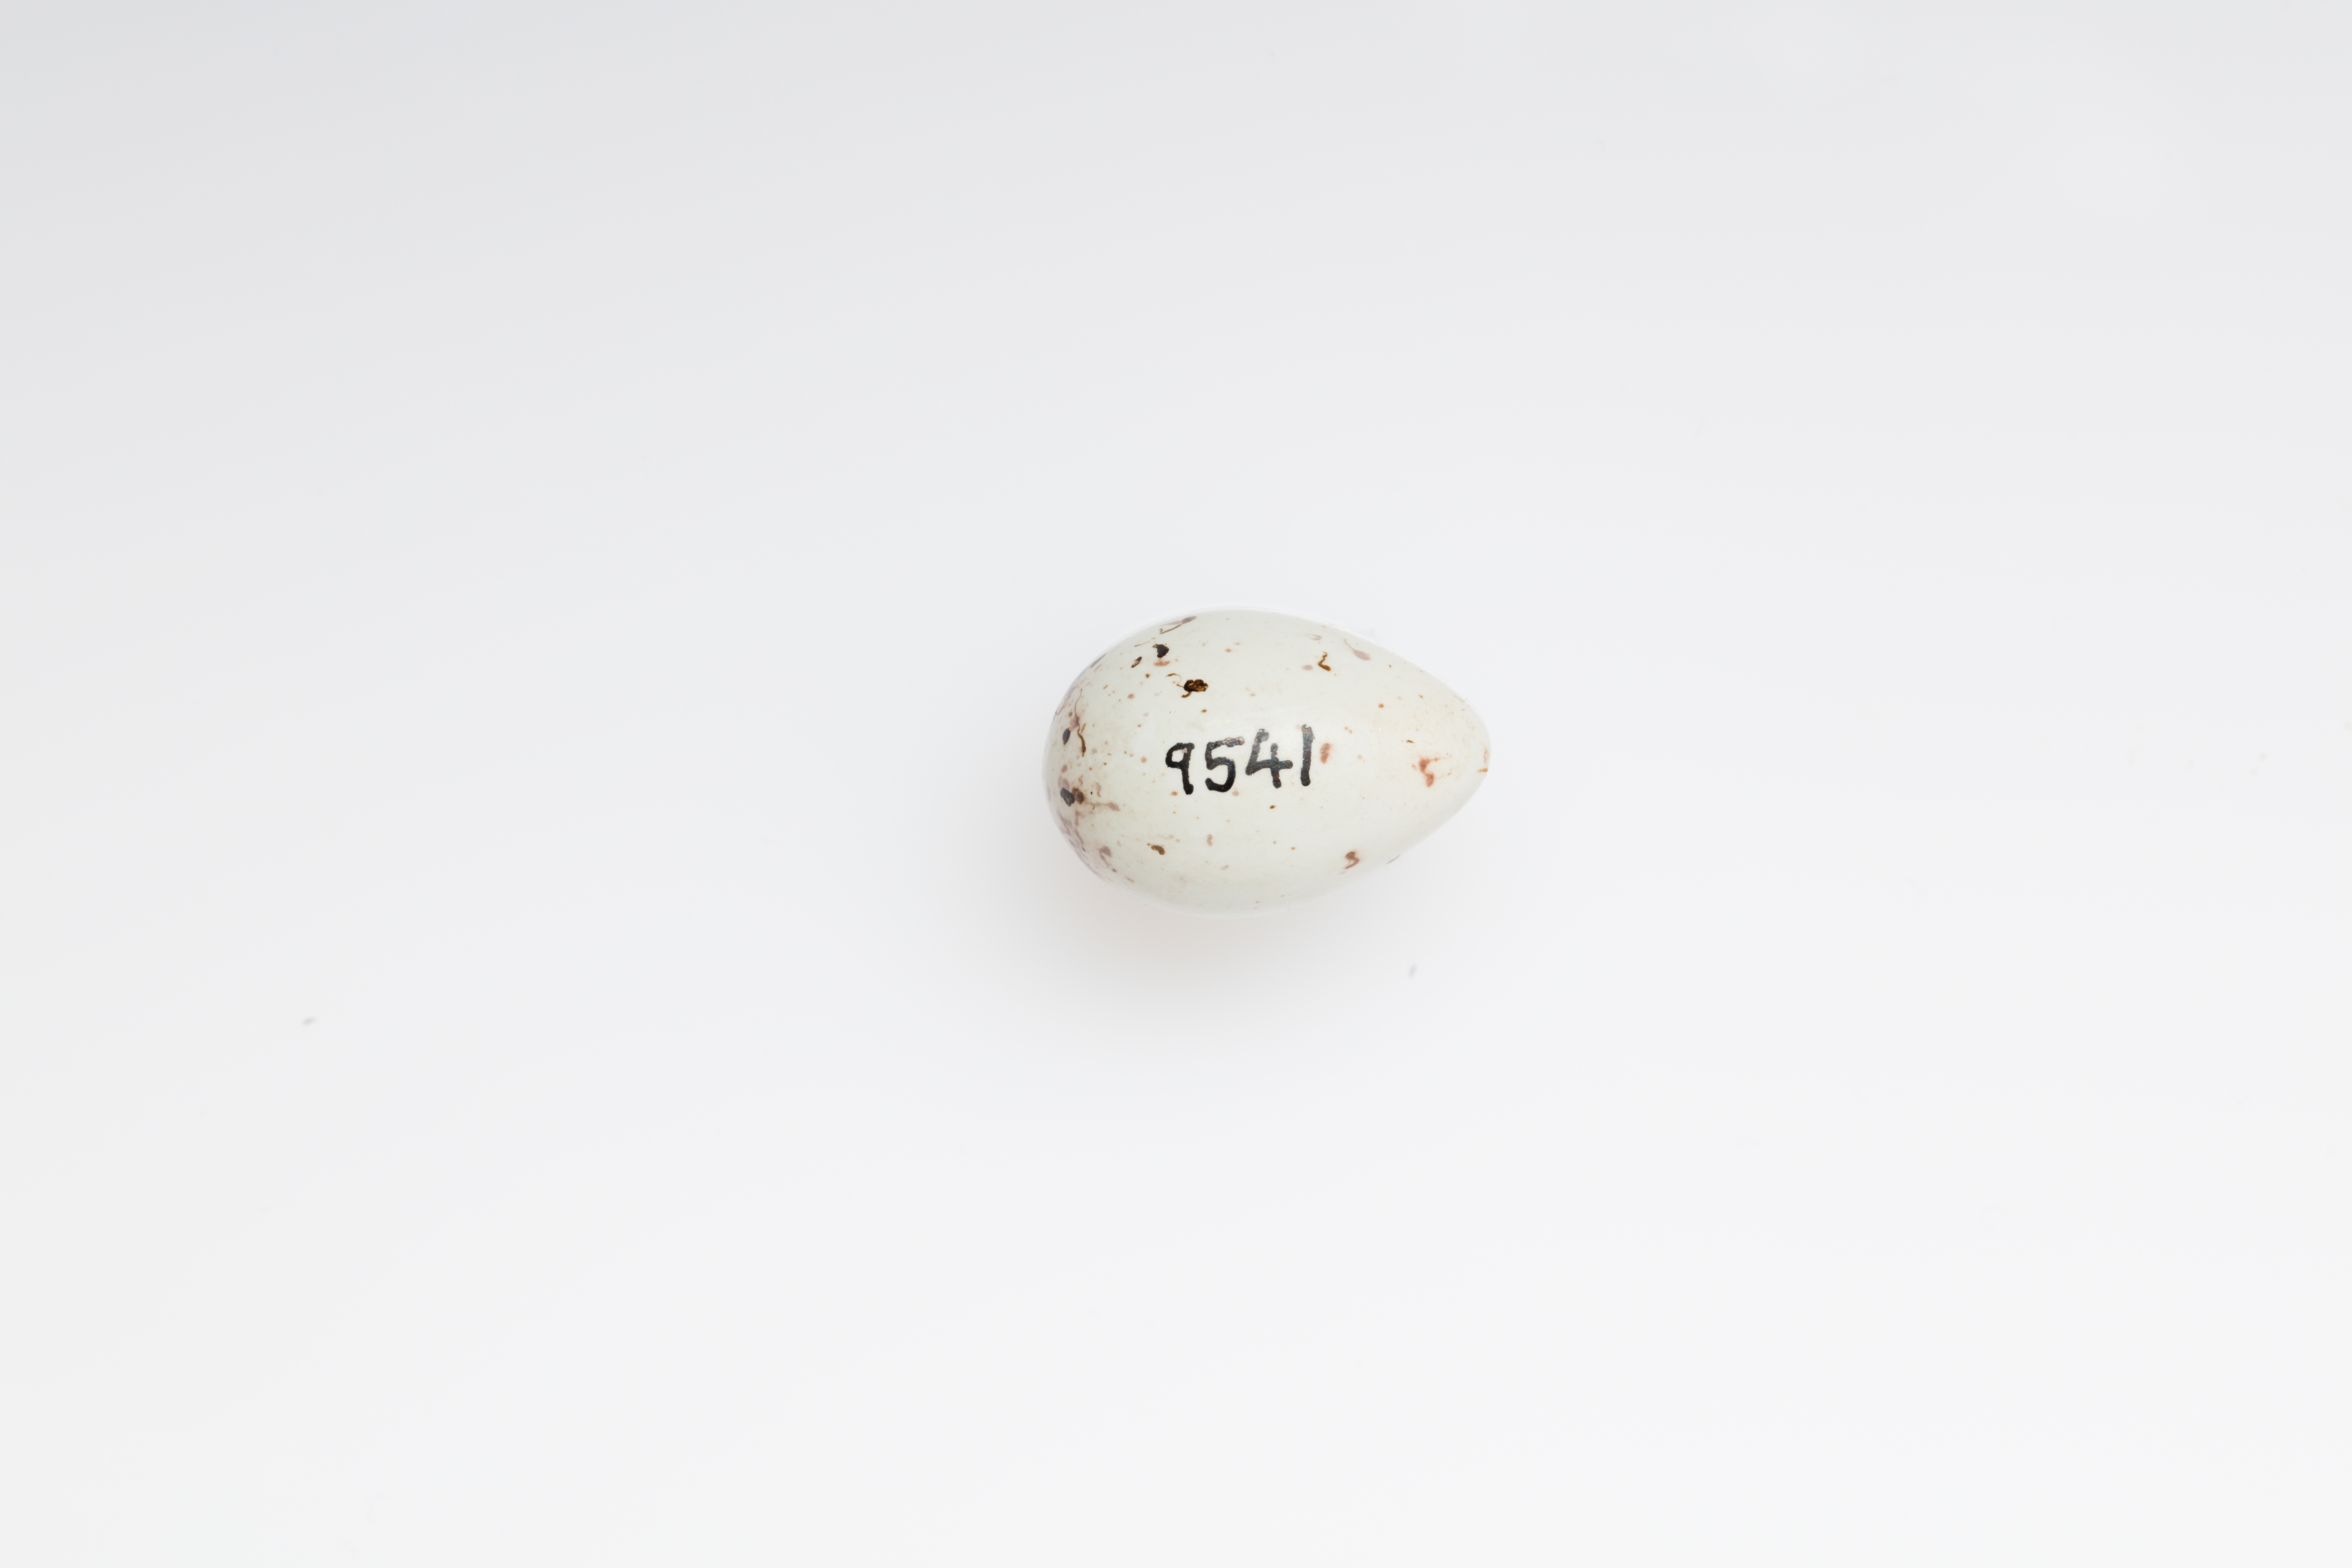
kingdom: Animalia
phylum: Chordata
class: Aves
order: Passeriformes
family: Fringillidae
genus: Carduelis
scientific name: Carduelis carduelis
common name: European goldfinch
